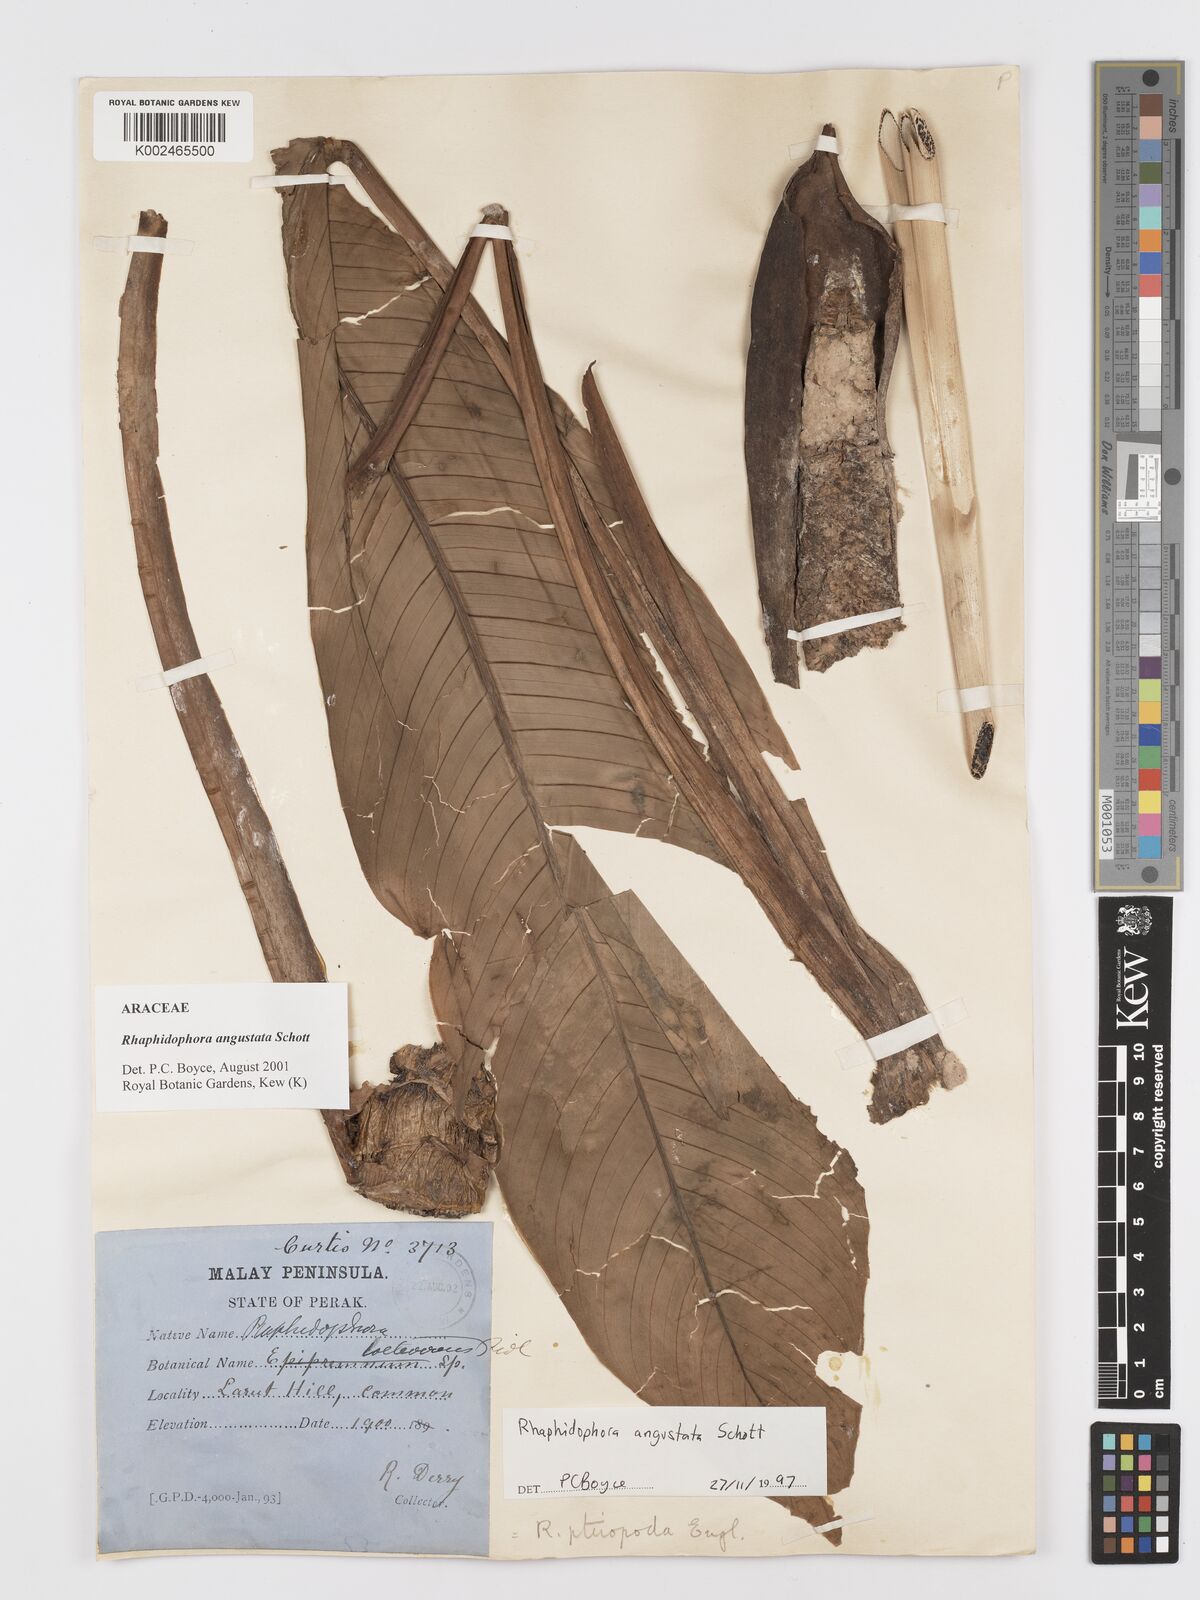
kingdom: Plantae
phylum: Tracheophyta
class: Liliopsida
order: Alismatales
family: Araceae
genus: Rhaphidophora
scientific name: Rhaphidophora angustata
